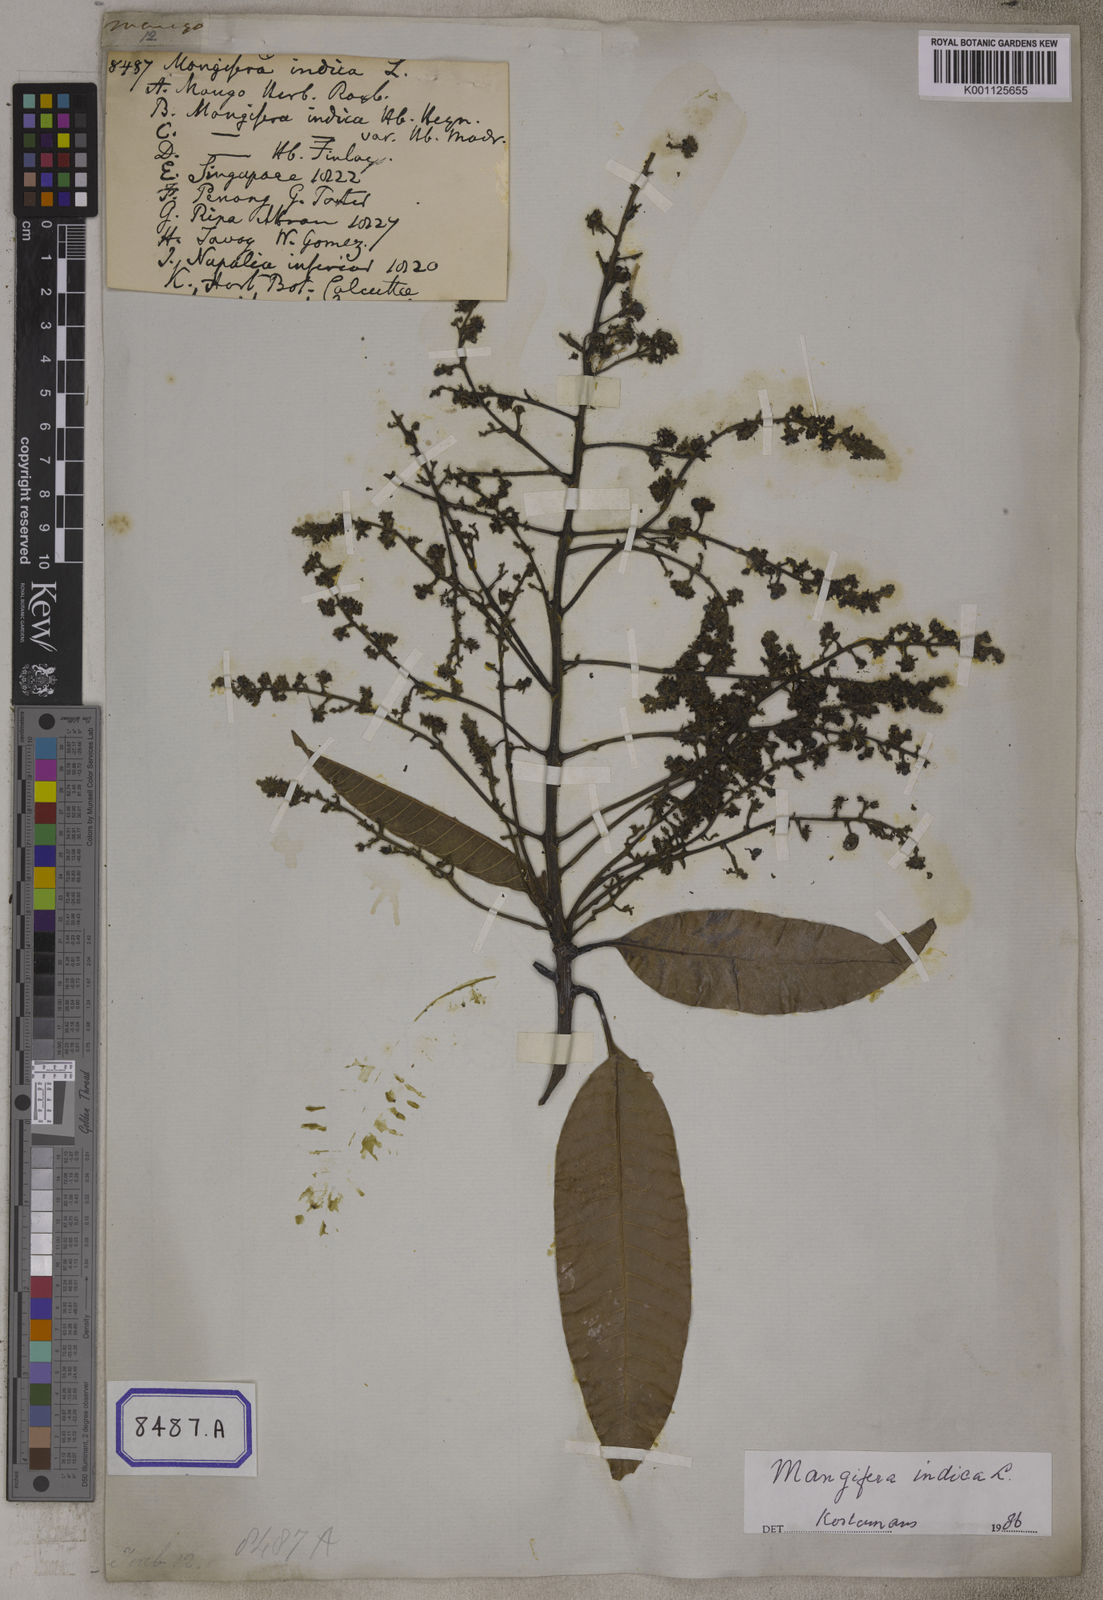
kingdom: Plantae
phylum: Tracheophyta
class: Magnoliopsida
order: Sapindales
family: Anacardiaceae
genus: Mangifera
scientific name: Mangifera indica
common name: Mango
